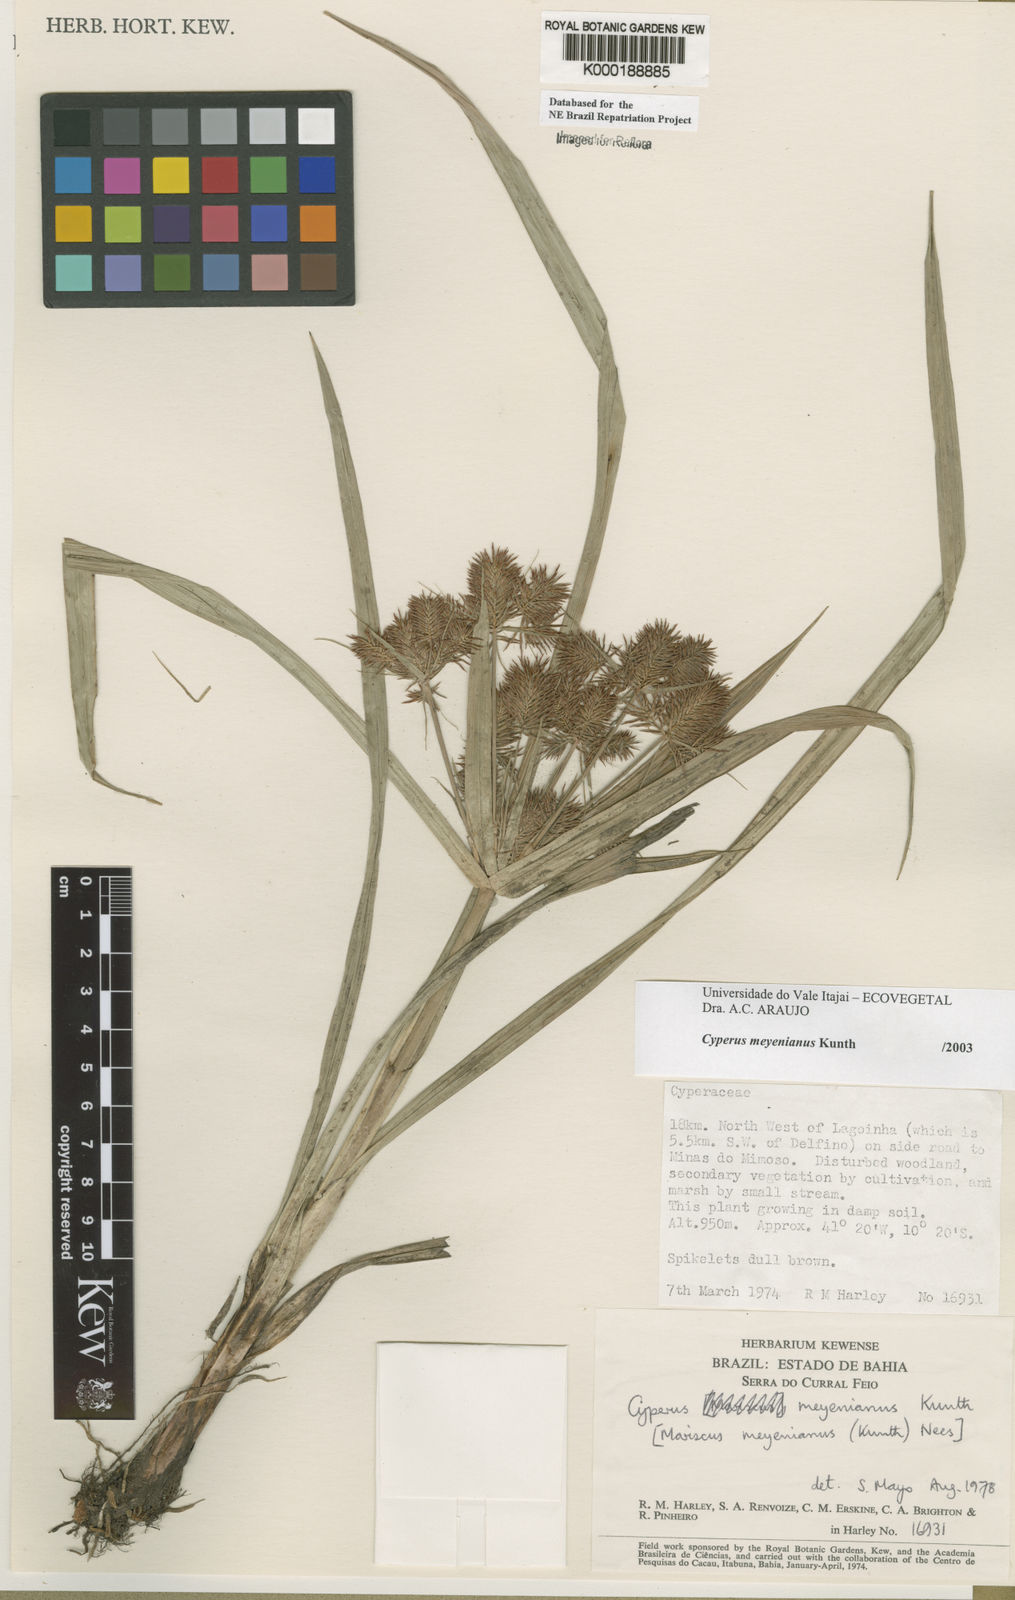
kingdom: Plantae
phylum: Tracheophyta
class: Liliopsida
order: Poales
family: Cyperaceae
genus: Cyperus
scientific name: Cyperus meyerianus
